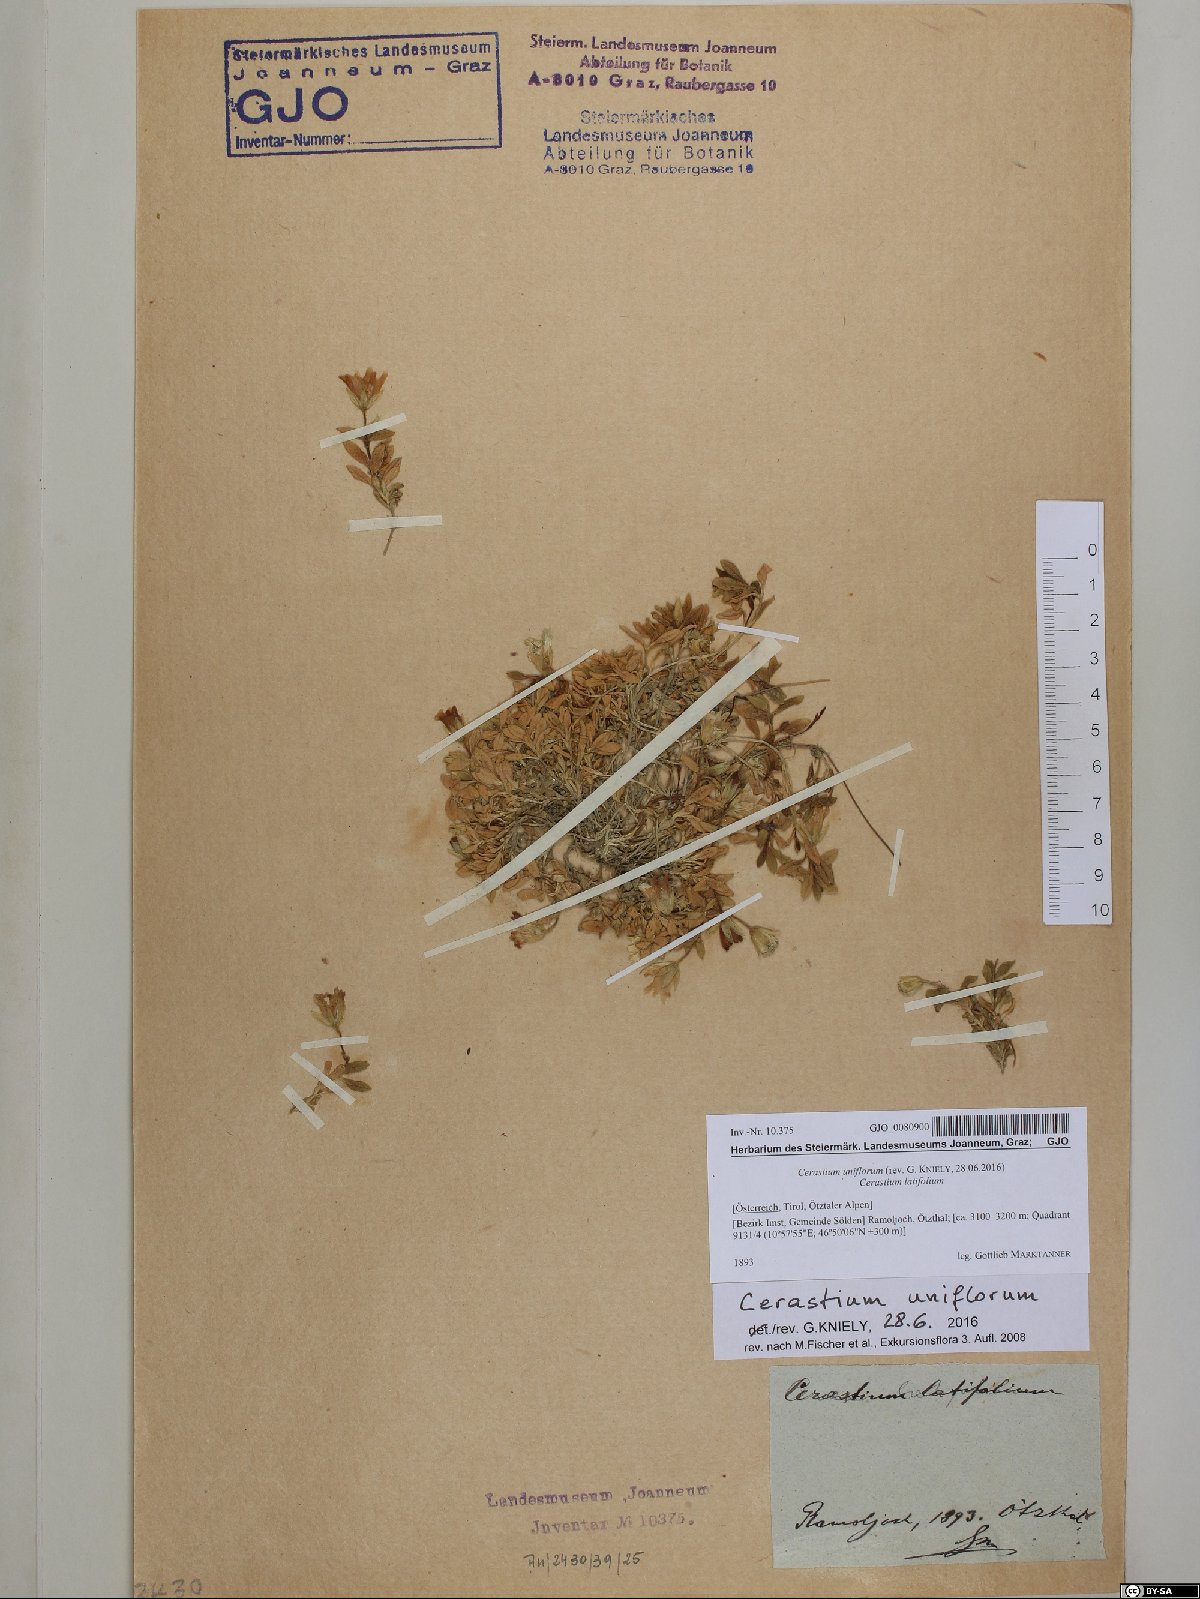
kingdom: Plantae
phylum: Tracheophyta
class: Magnoliopsida
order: Caryophyllales
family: Caryophyllaceae
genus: Cerastium
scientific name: Cerastium uniflorum
